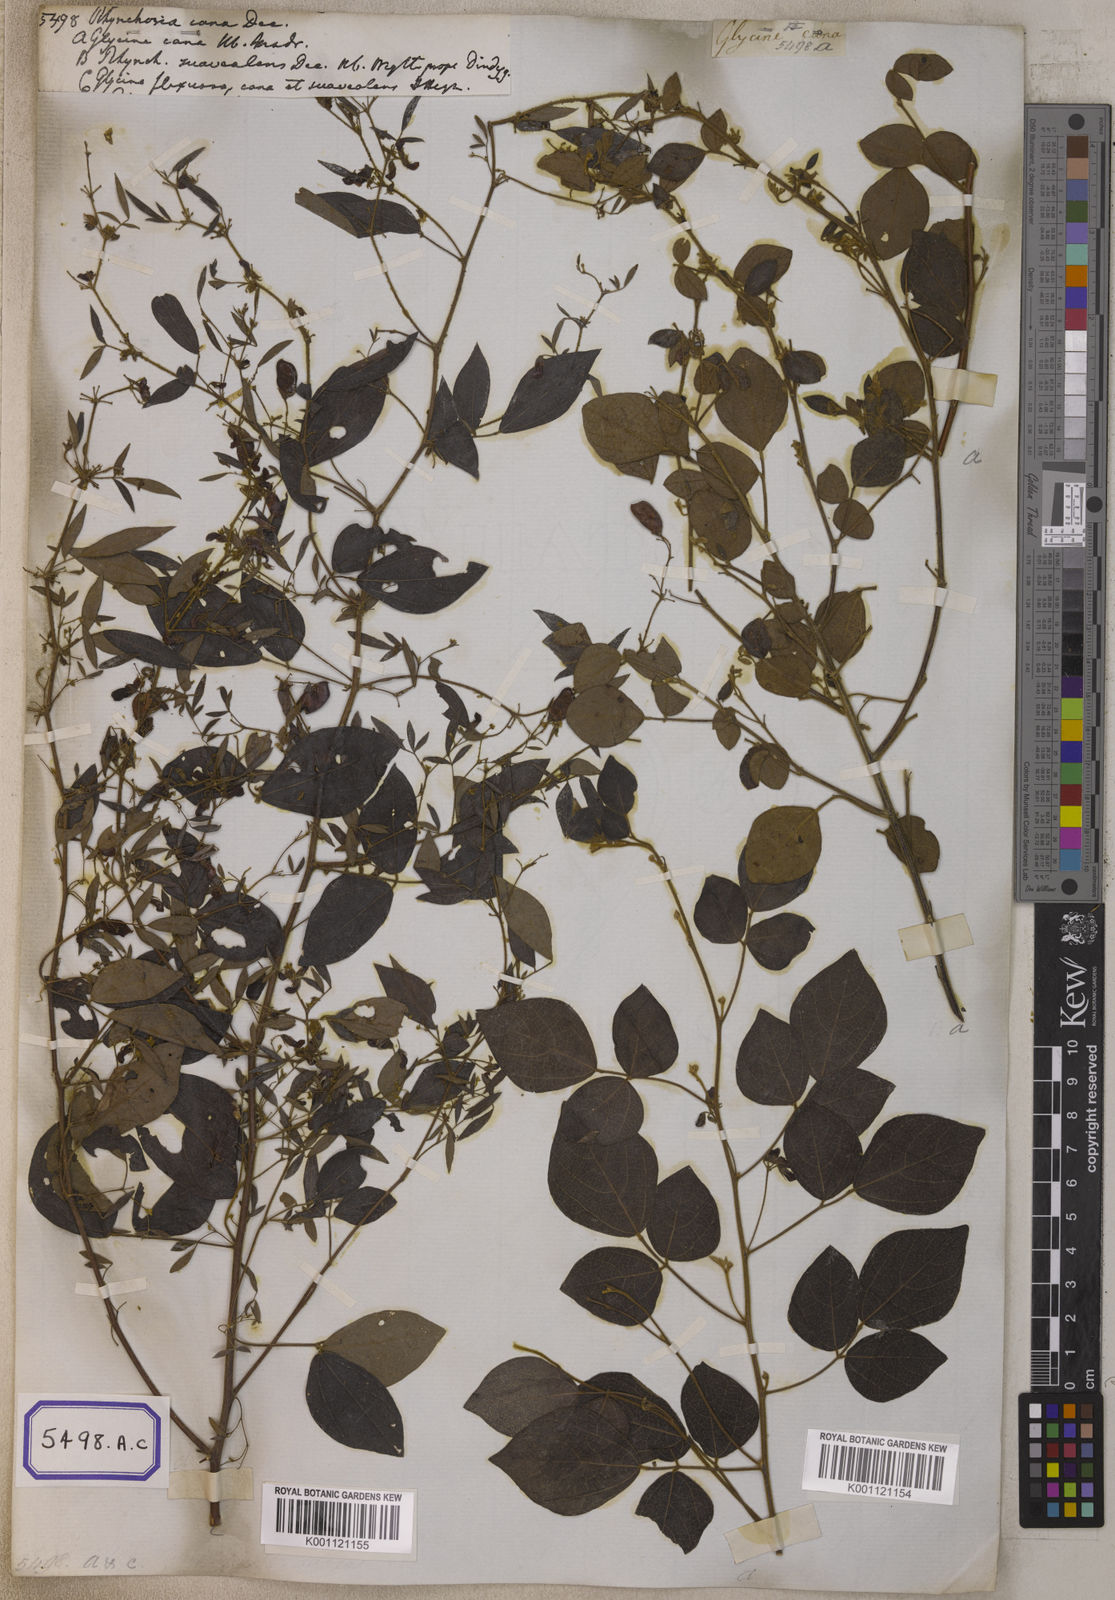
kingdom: Plantae
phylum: Tracheophyta
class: Magnoliopsida
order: Fabales
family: Fabaceae
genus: Rhynchosia
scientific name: Rhynchosia cana
